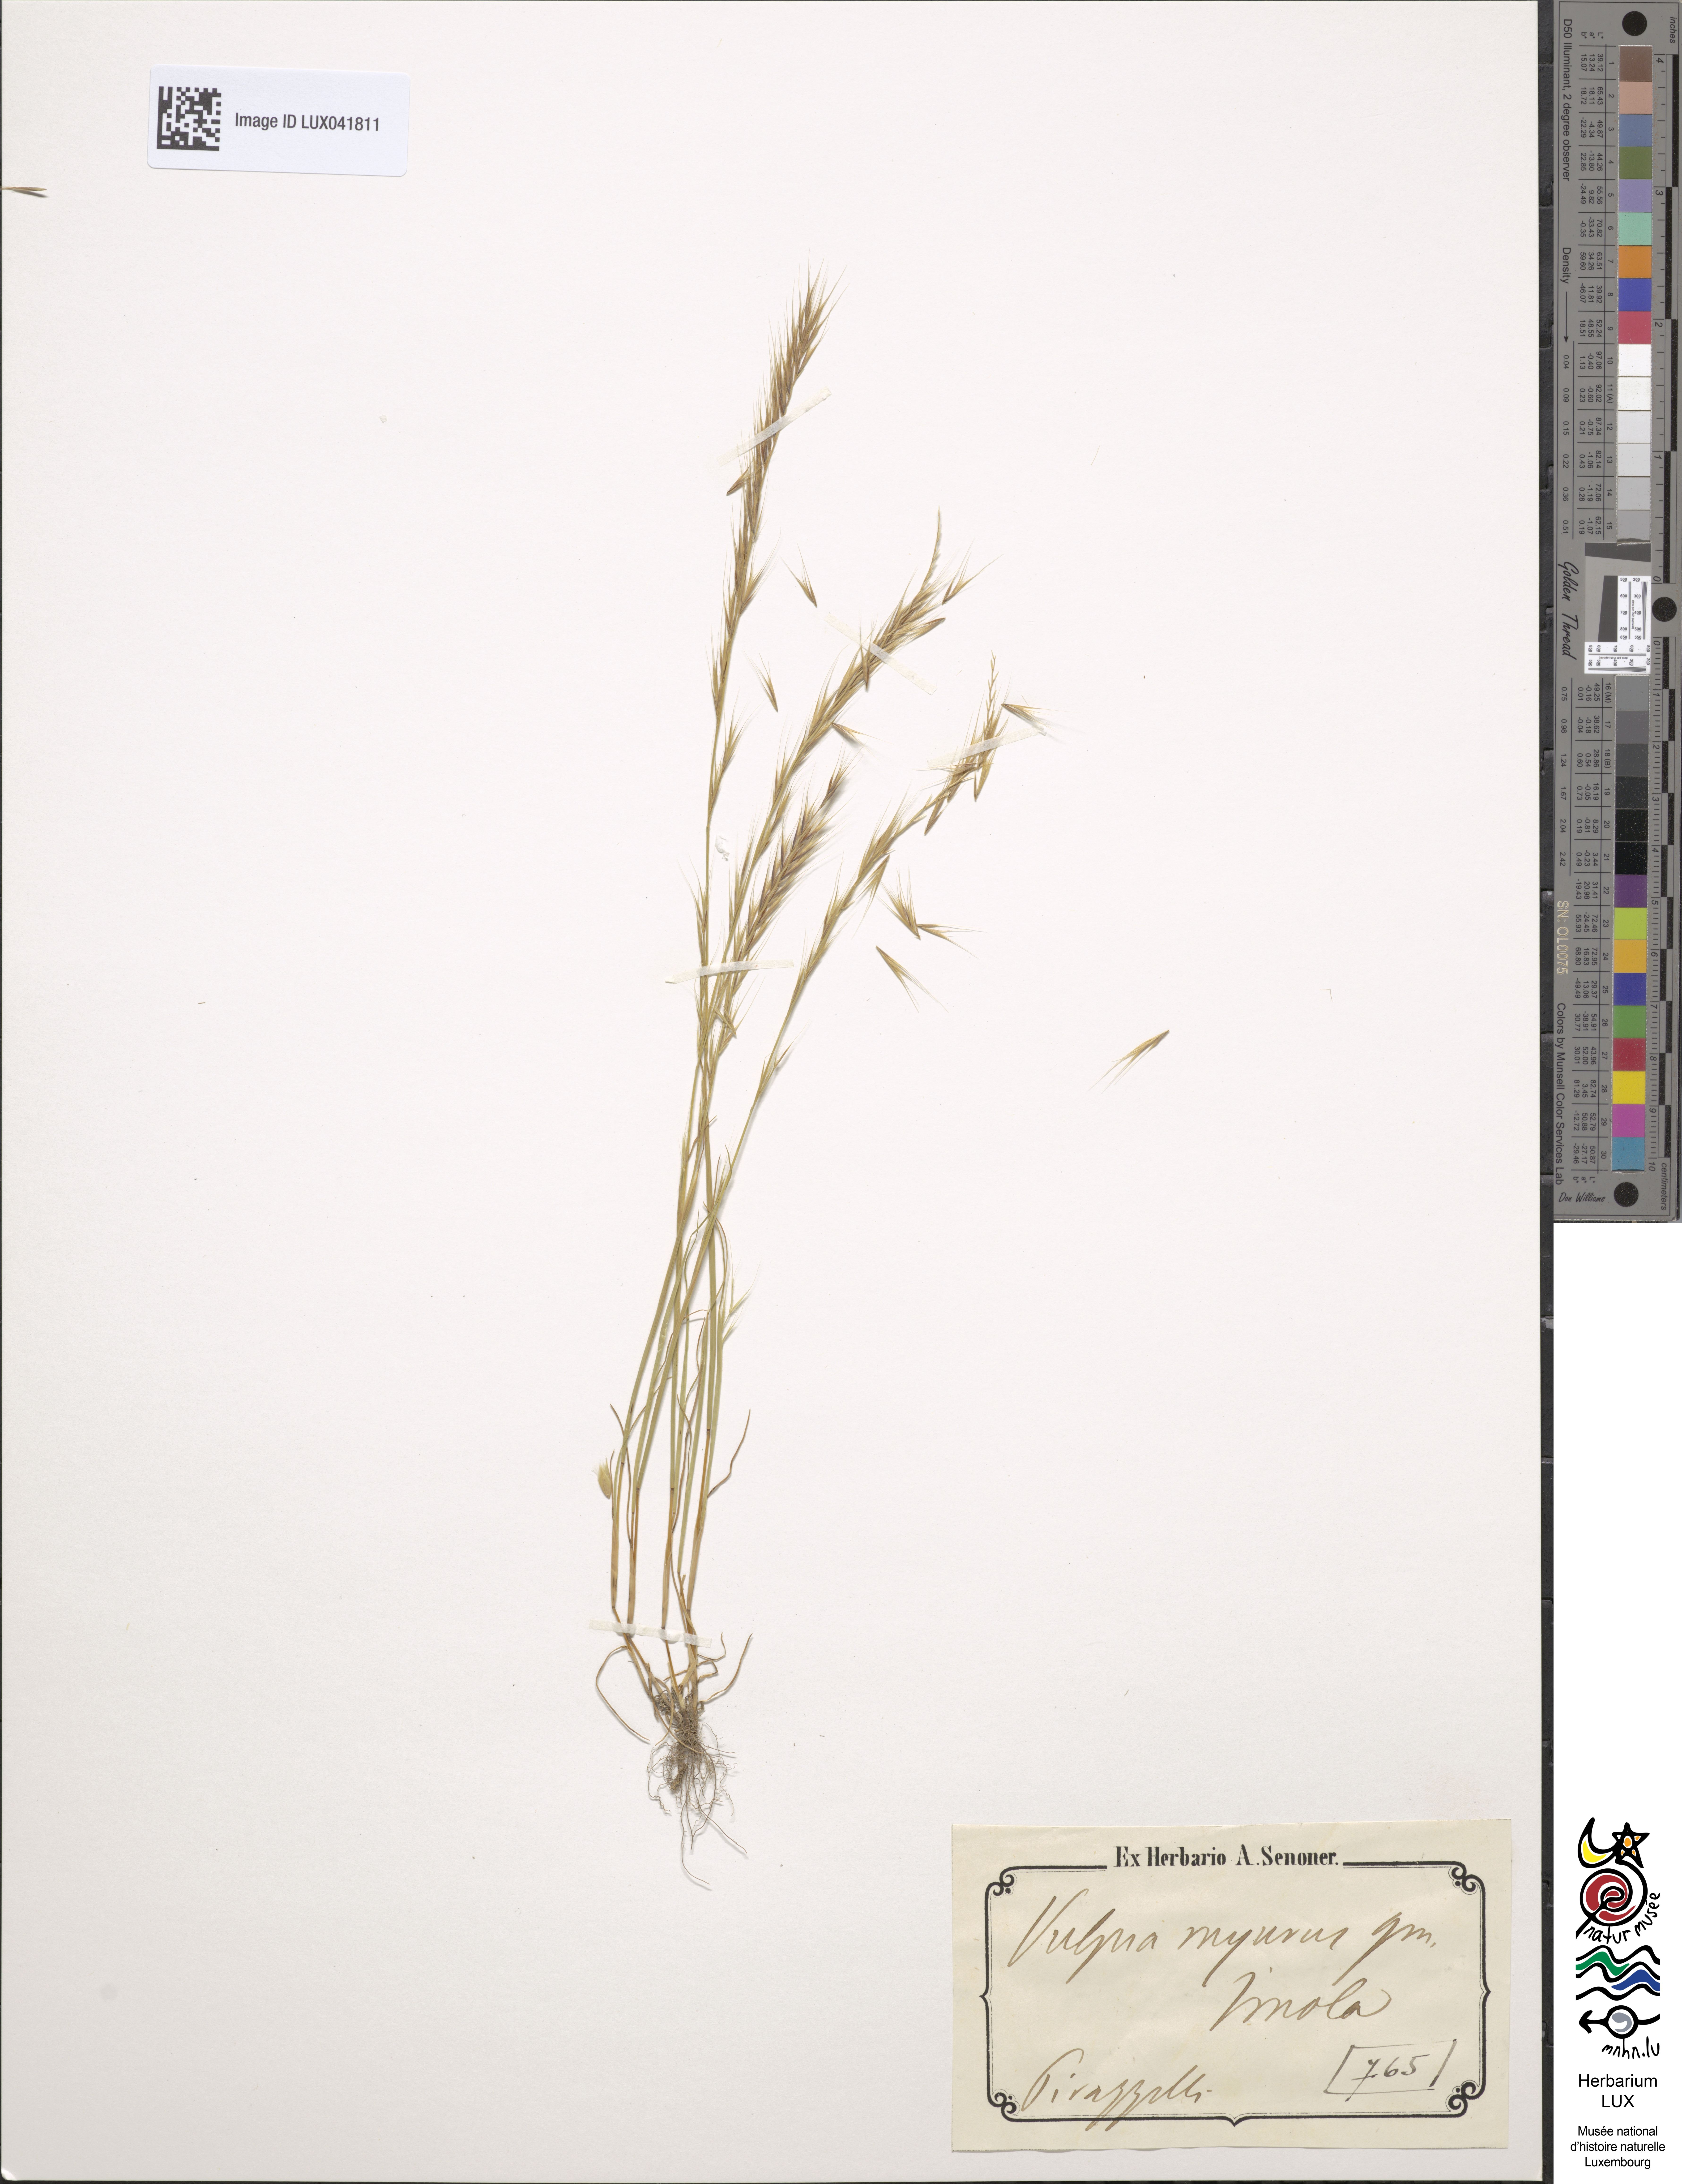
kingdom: Plantae
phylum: Tracheophyta
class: Liliopsida
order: Poales
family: Poaceae
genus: Festuca
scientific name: Festuca myuros
